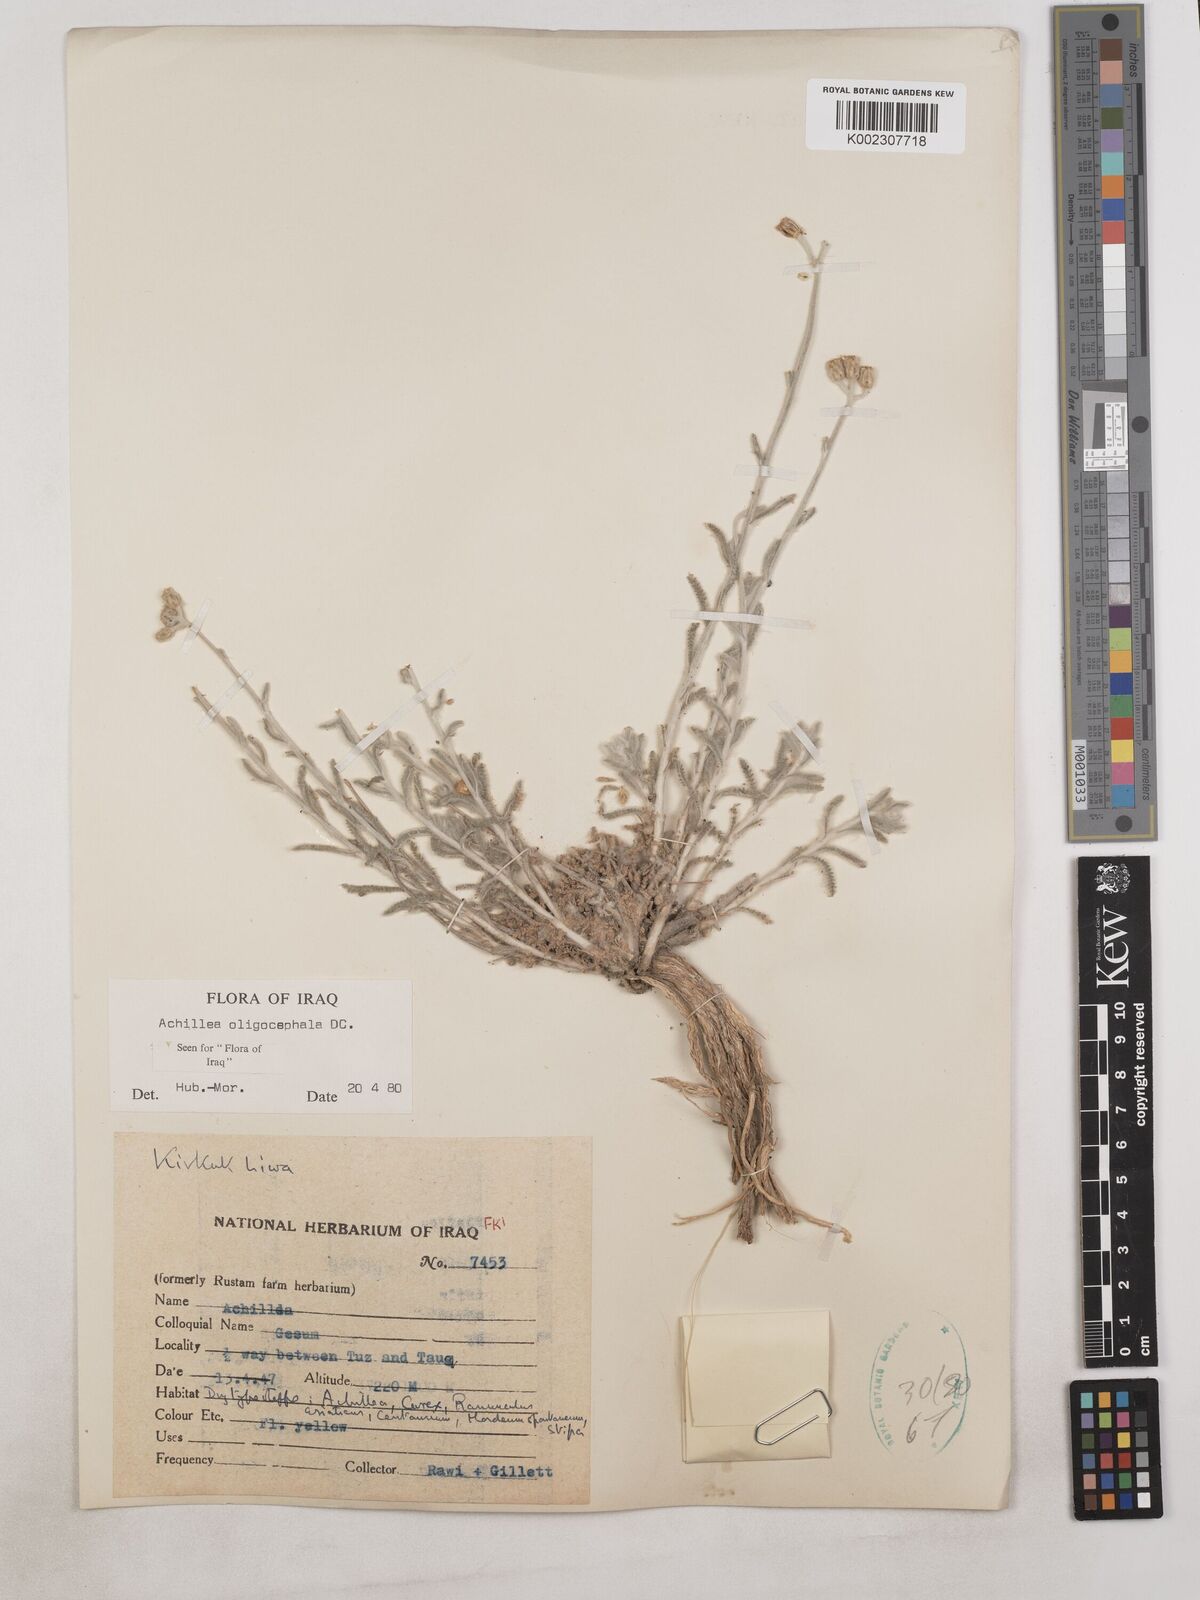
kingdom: Plantae
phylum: Tracheophyta
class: Magnoliopsida
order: Asterales
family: Asteraceae
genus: Achillea
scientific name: Achillea oligocephala
